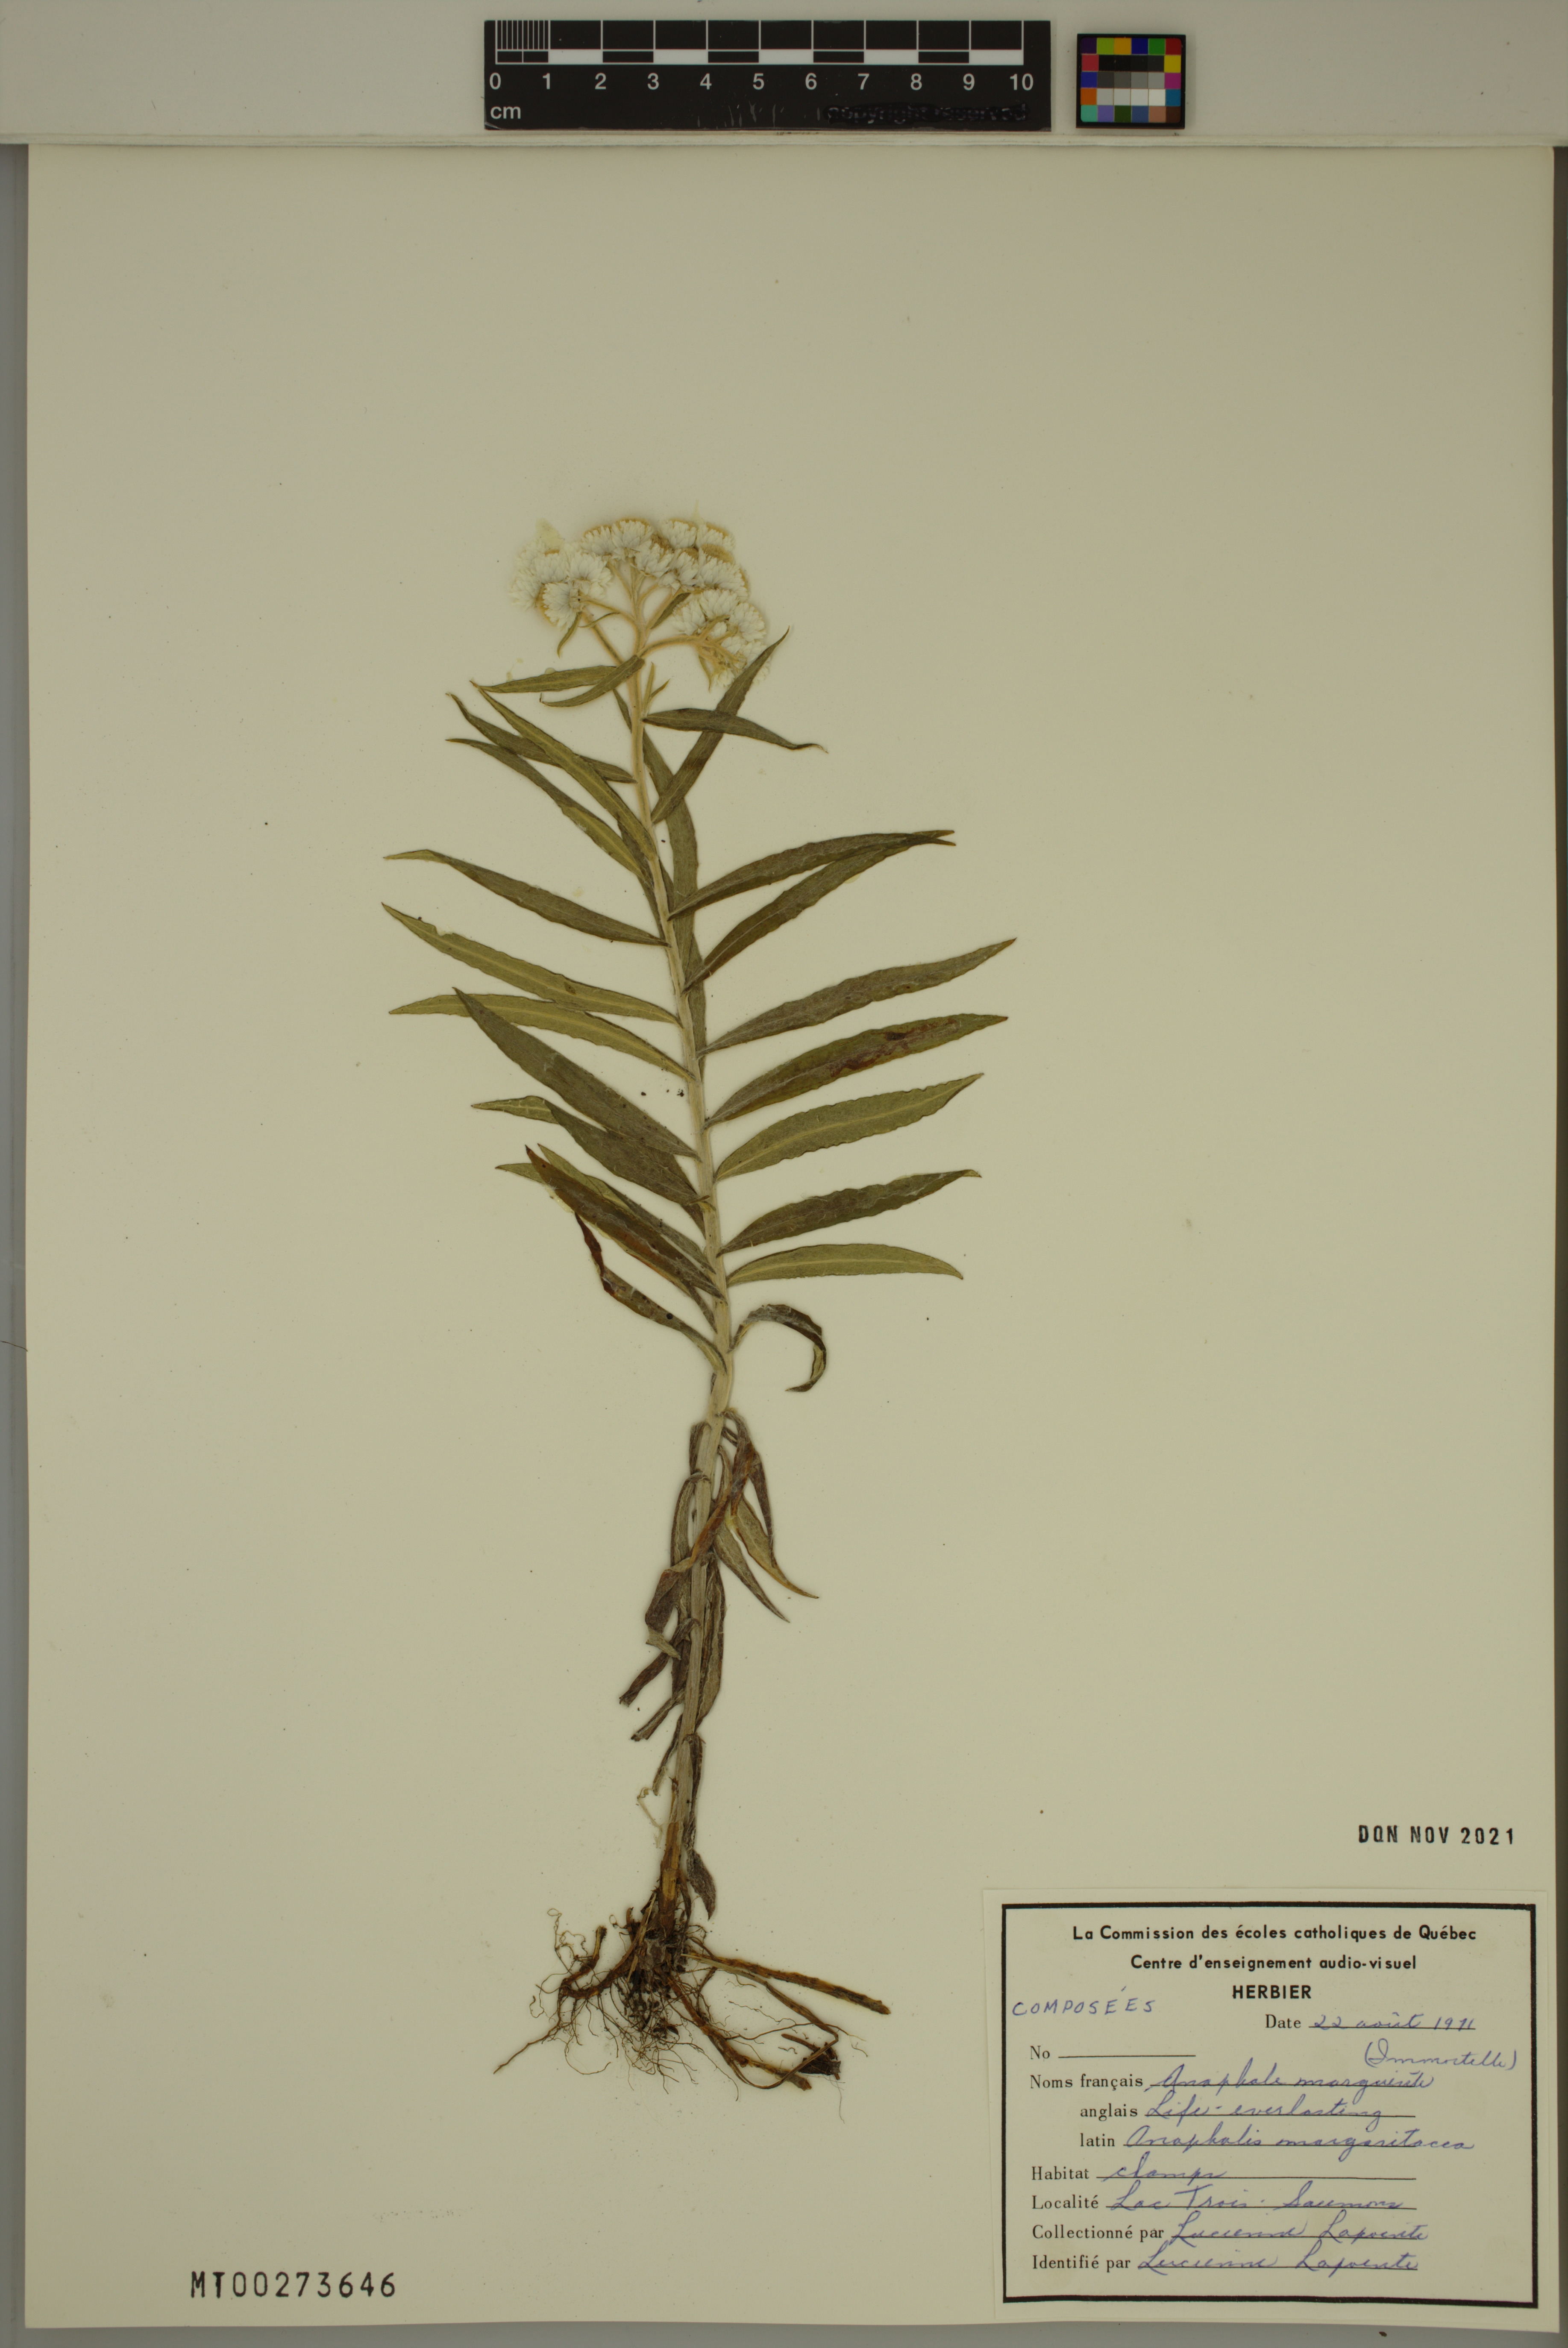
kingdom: Plantae
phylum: Tracheophyta
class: Magnoliopsida
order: Asterales
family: Asteraceae
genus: Anaphalis
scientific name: Anaphalis margaritacea
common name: Pearly everlasting
